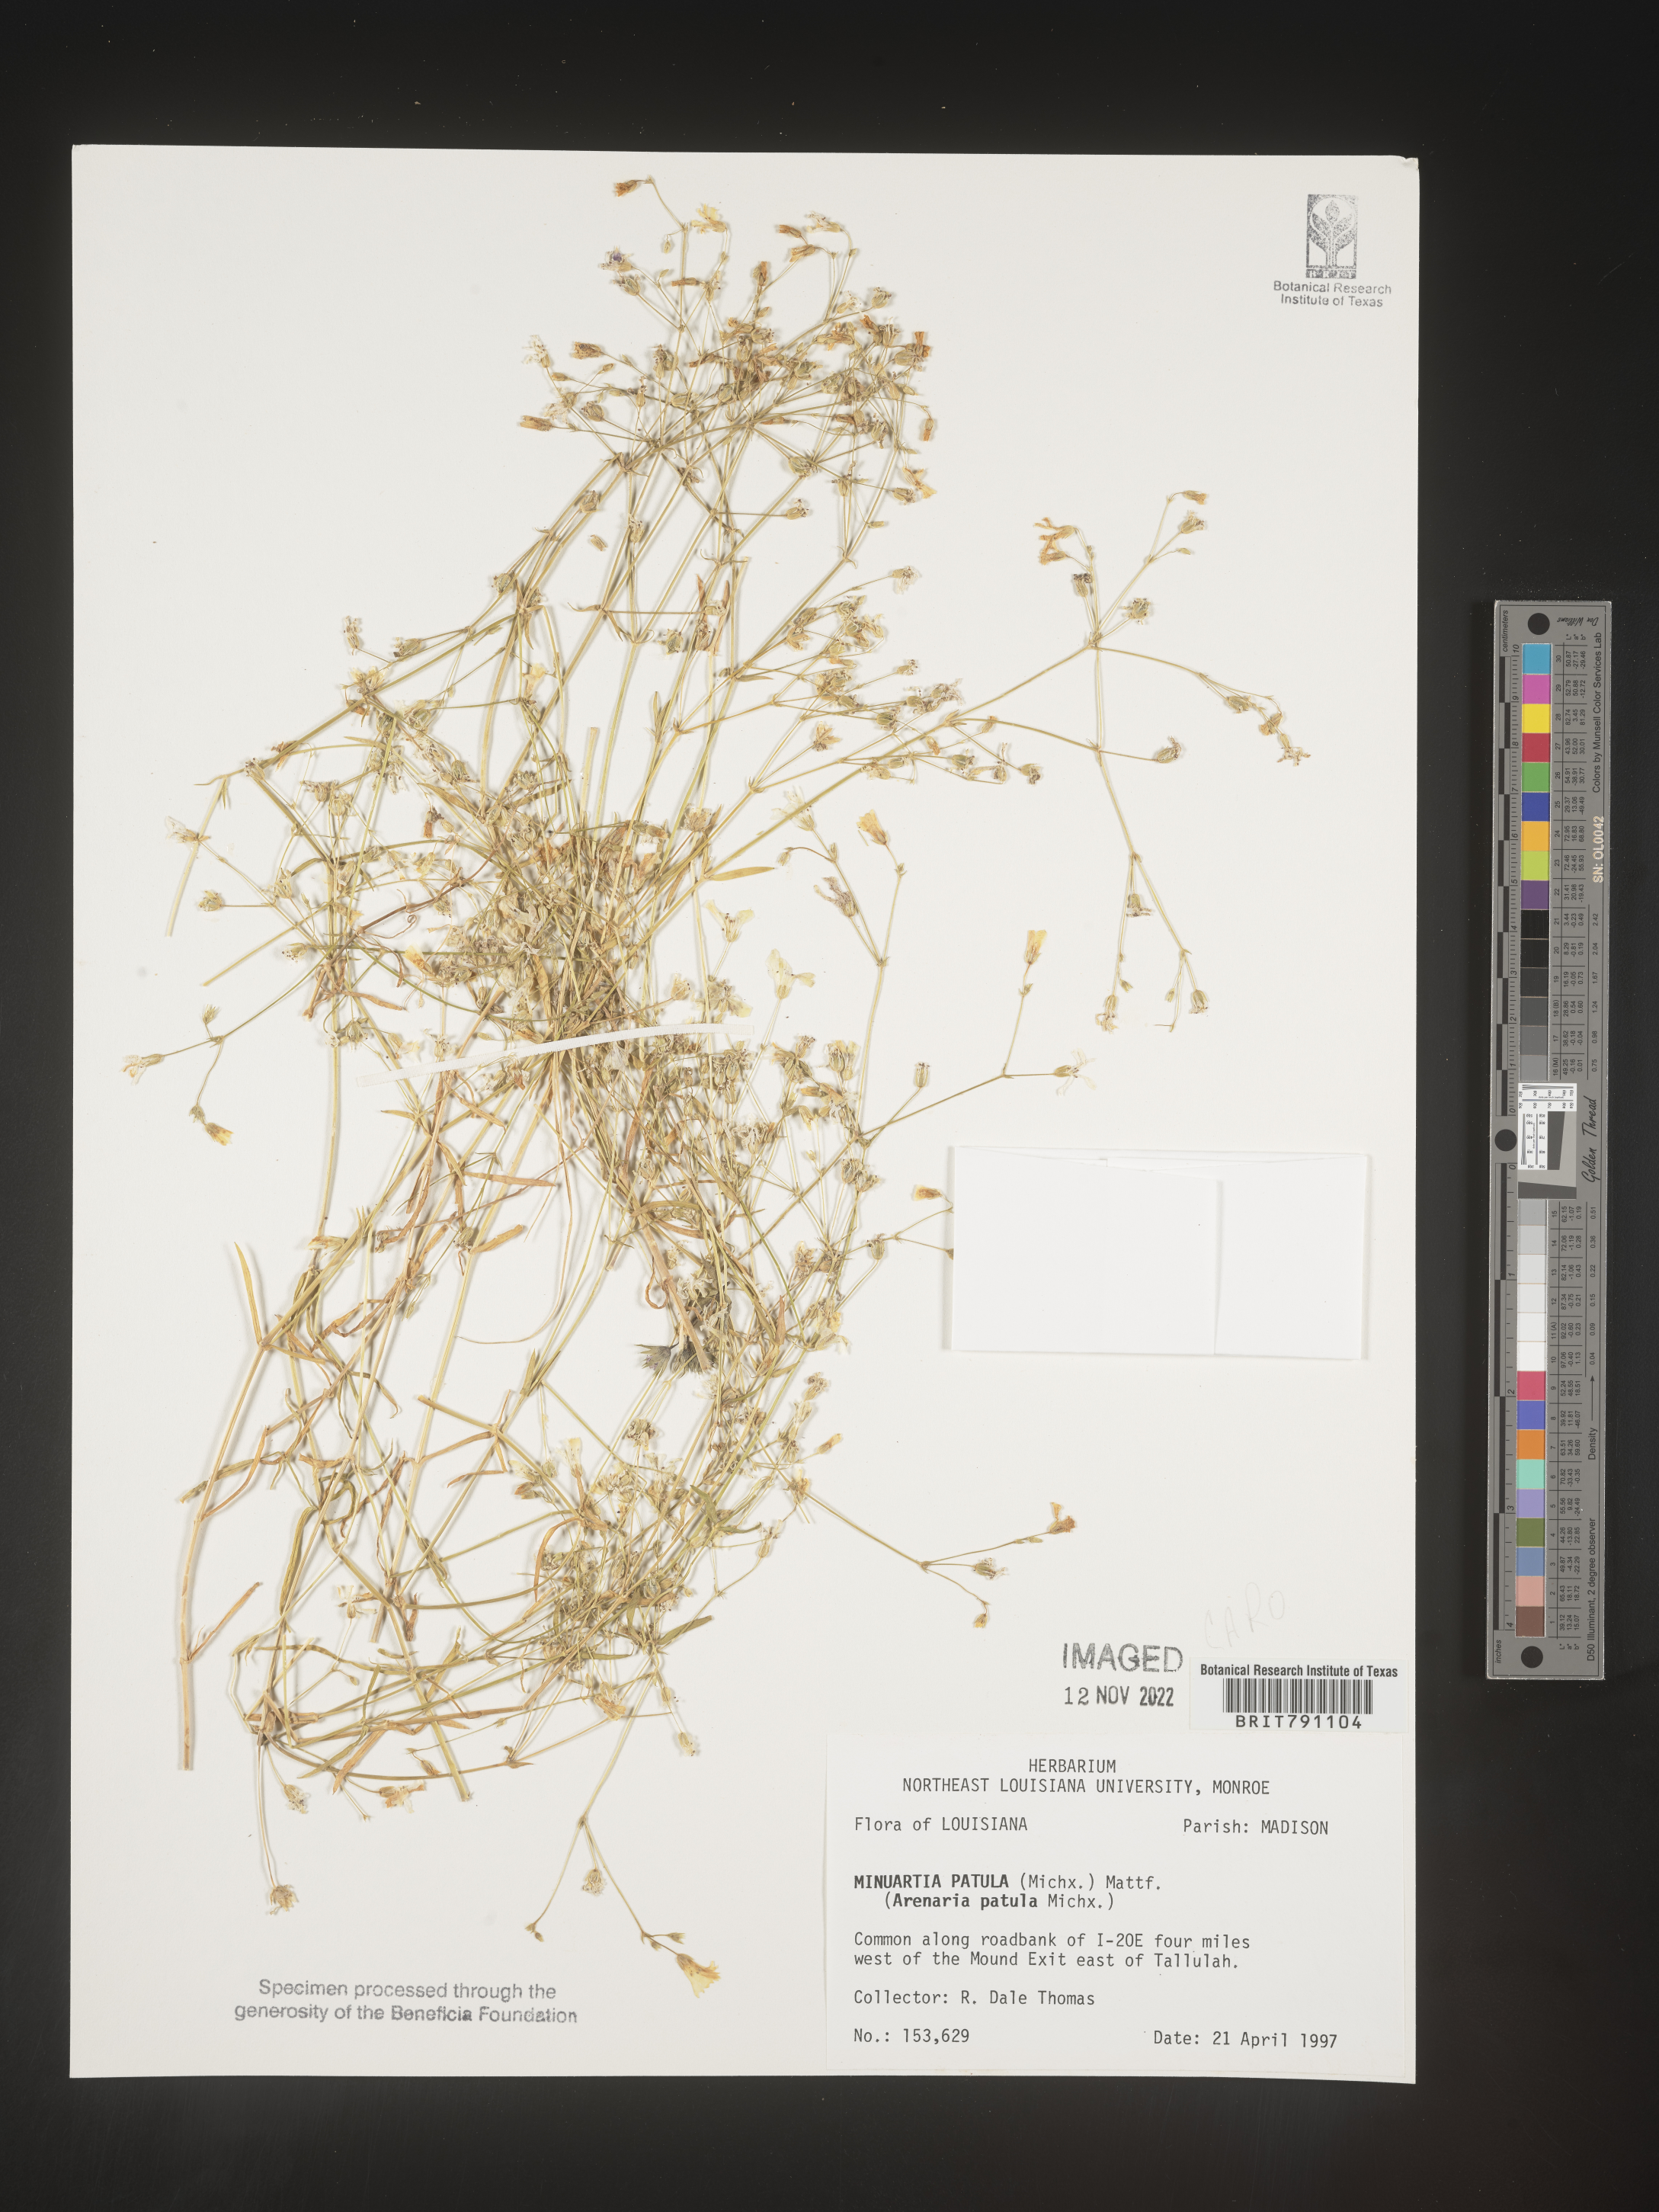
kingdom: Plantae
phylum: Tracheophyta
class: Magnoliopsida
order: Caryophyllales
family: Caryophyllaceae
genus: Mononeuria
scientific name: Mononeuria patula
